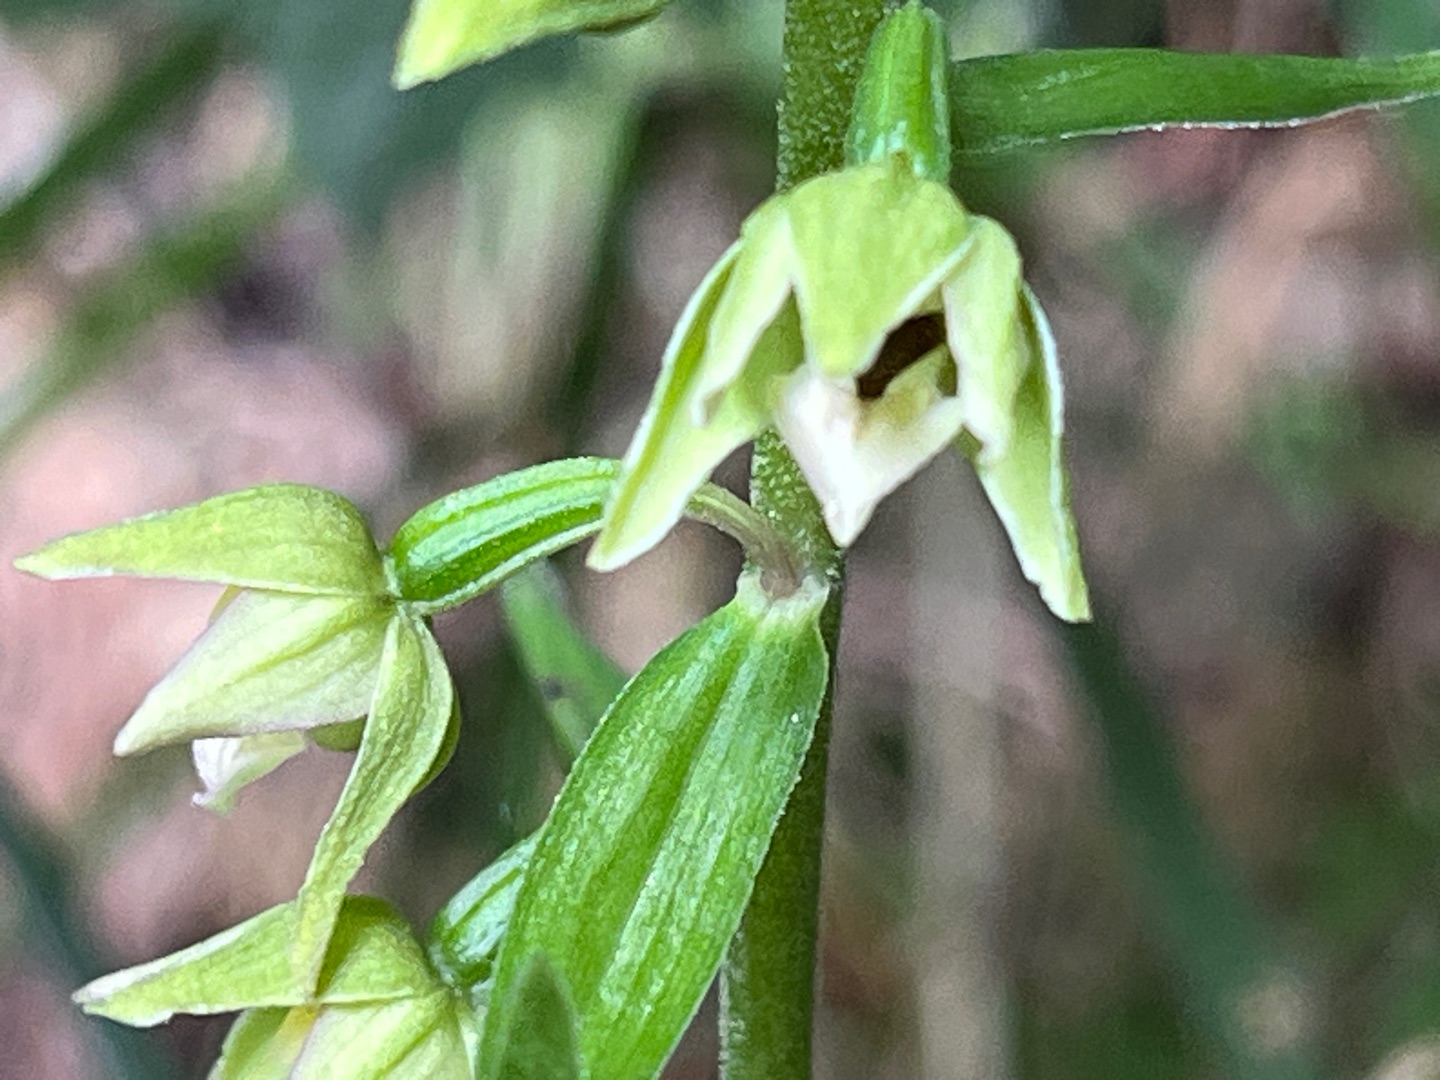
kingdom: Plantae
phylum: Tracheophyta
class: Liliopsida
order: Asparagales
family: Orchidaceae
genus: Epipactis
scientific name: Epipactis helleborine
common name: Skov-hullæbe
